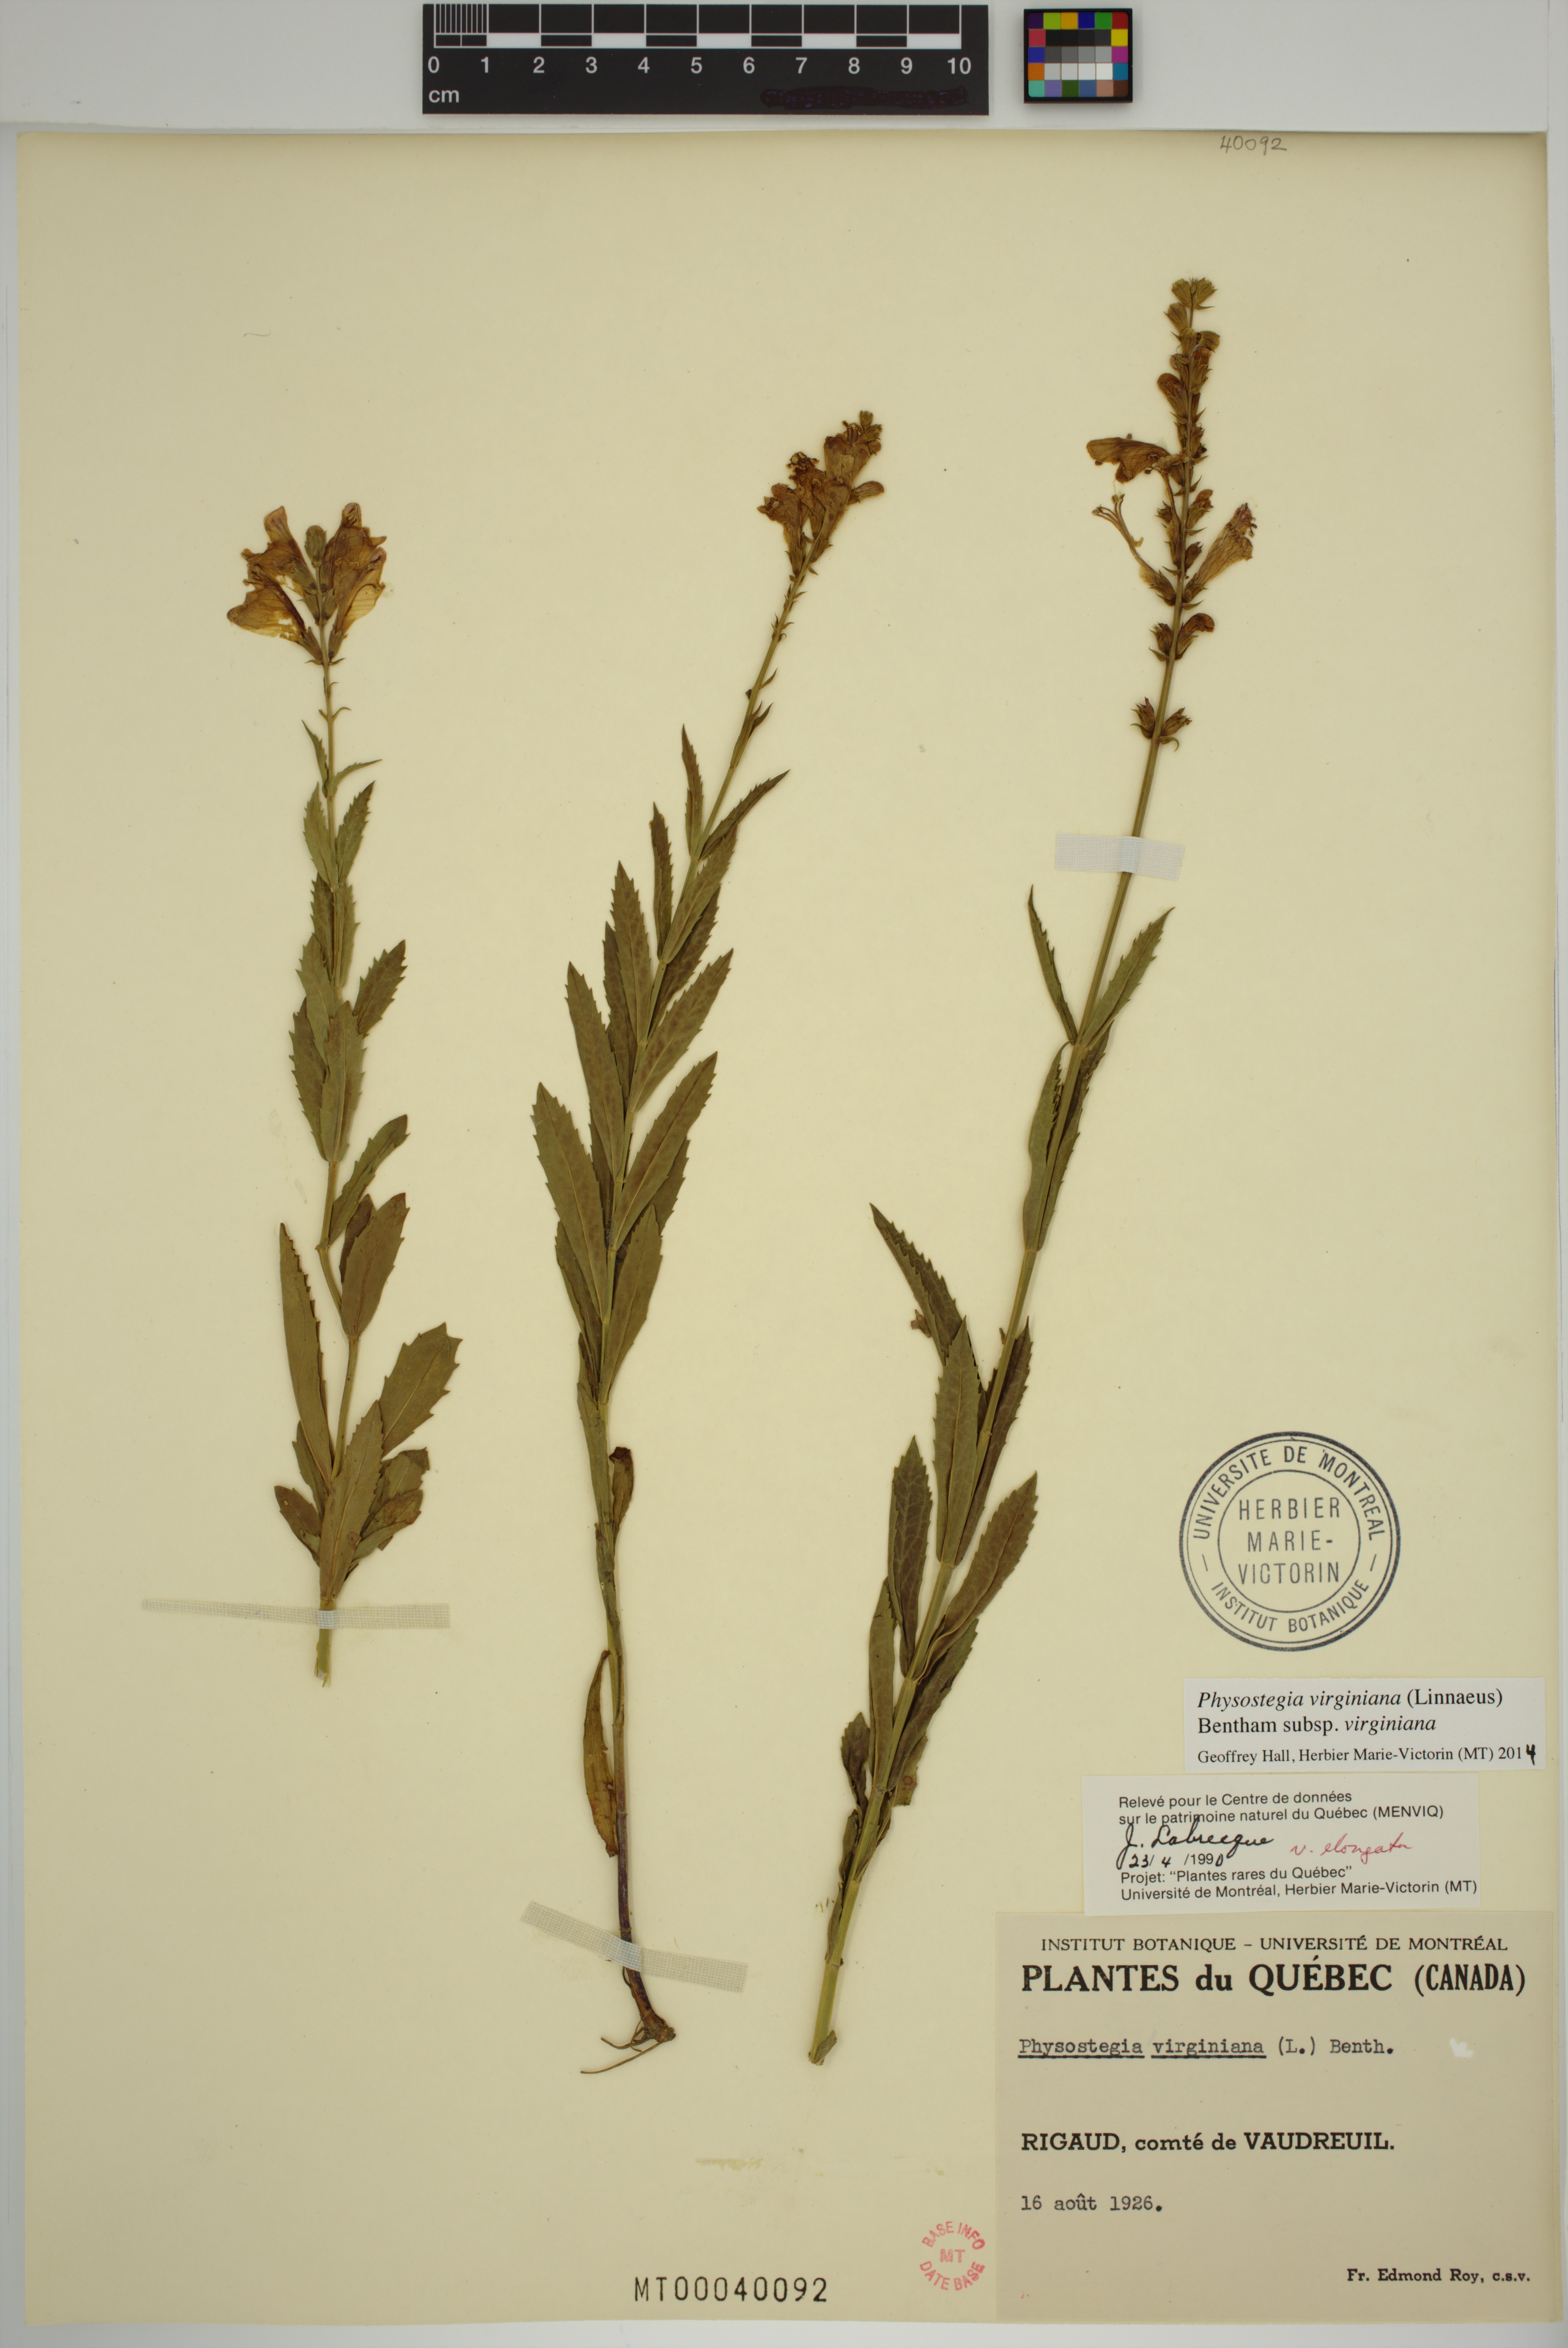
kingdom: Plantae
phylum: Tracheophyta
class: Magnoliopsida
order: Lamiales
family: Lamiaceae
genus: Physostegia
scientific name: Physostegia virginiana
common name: Obedient-plant
